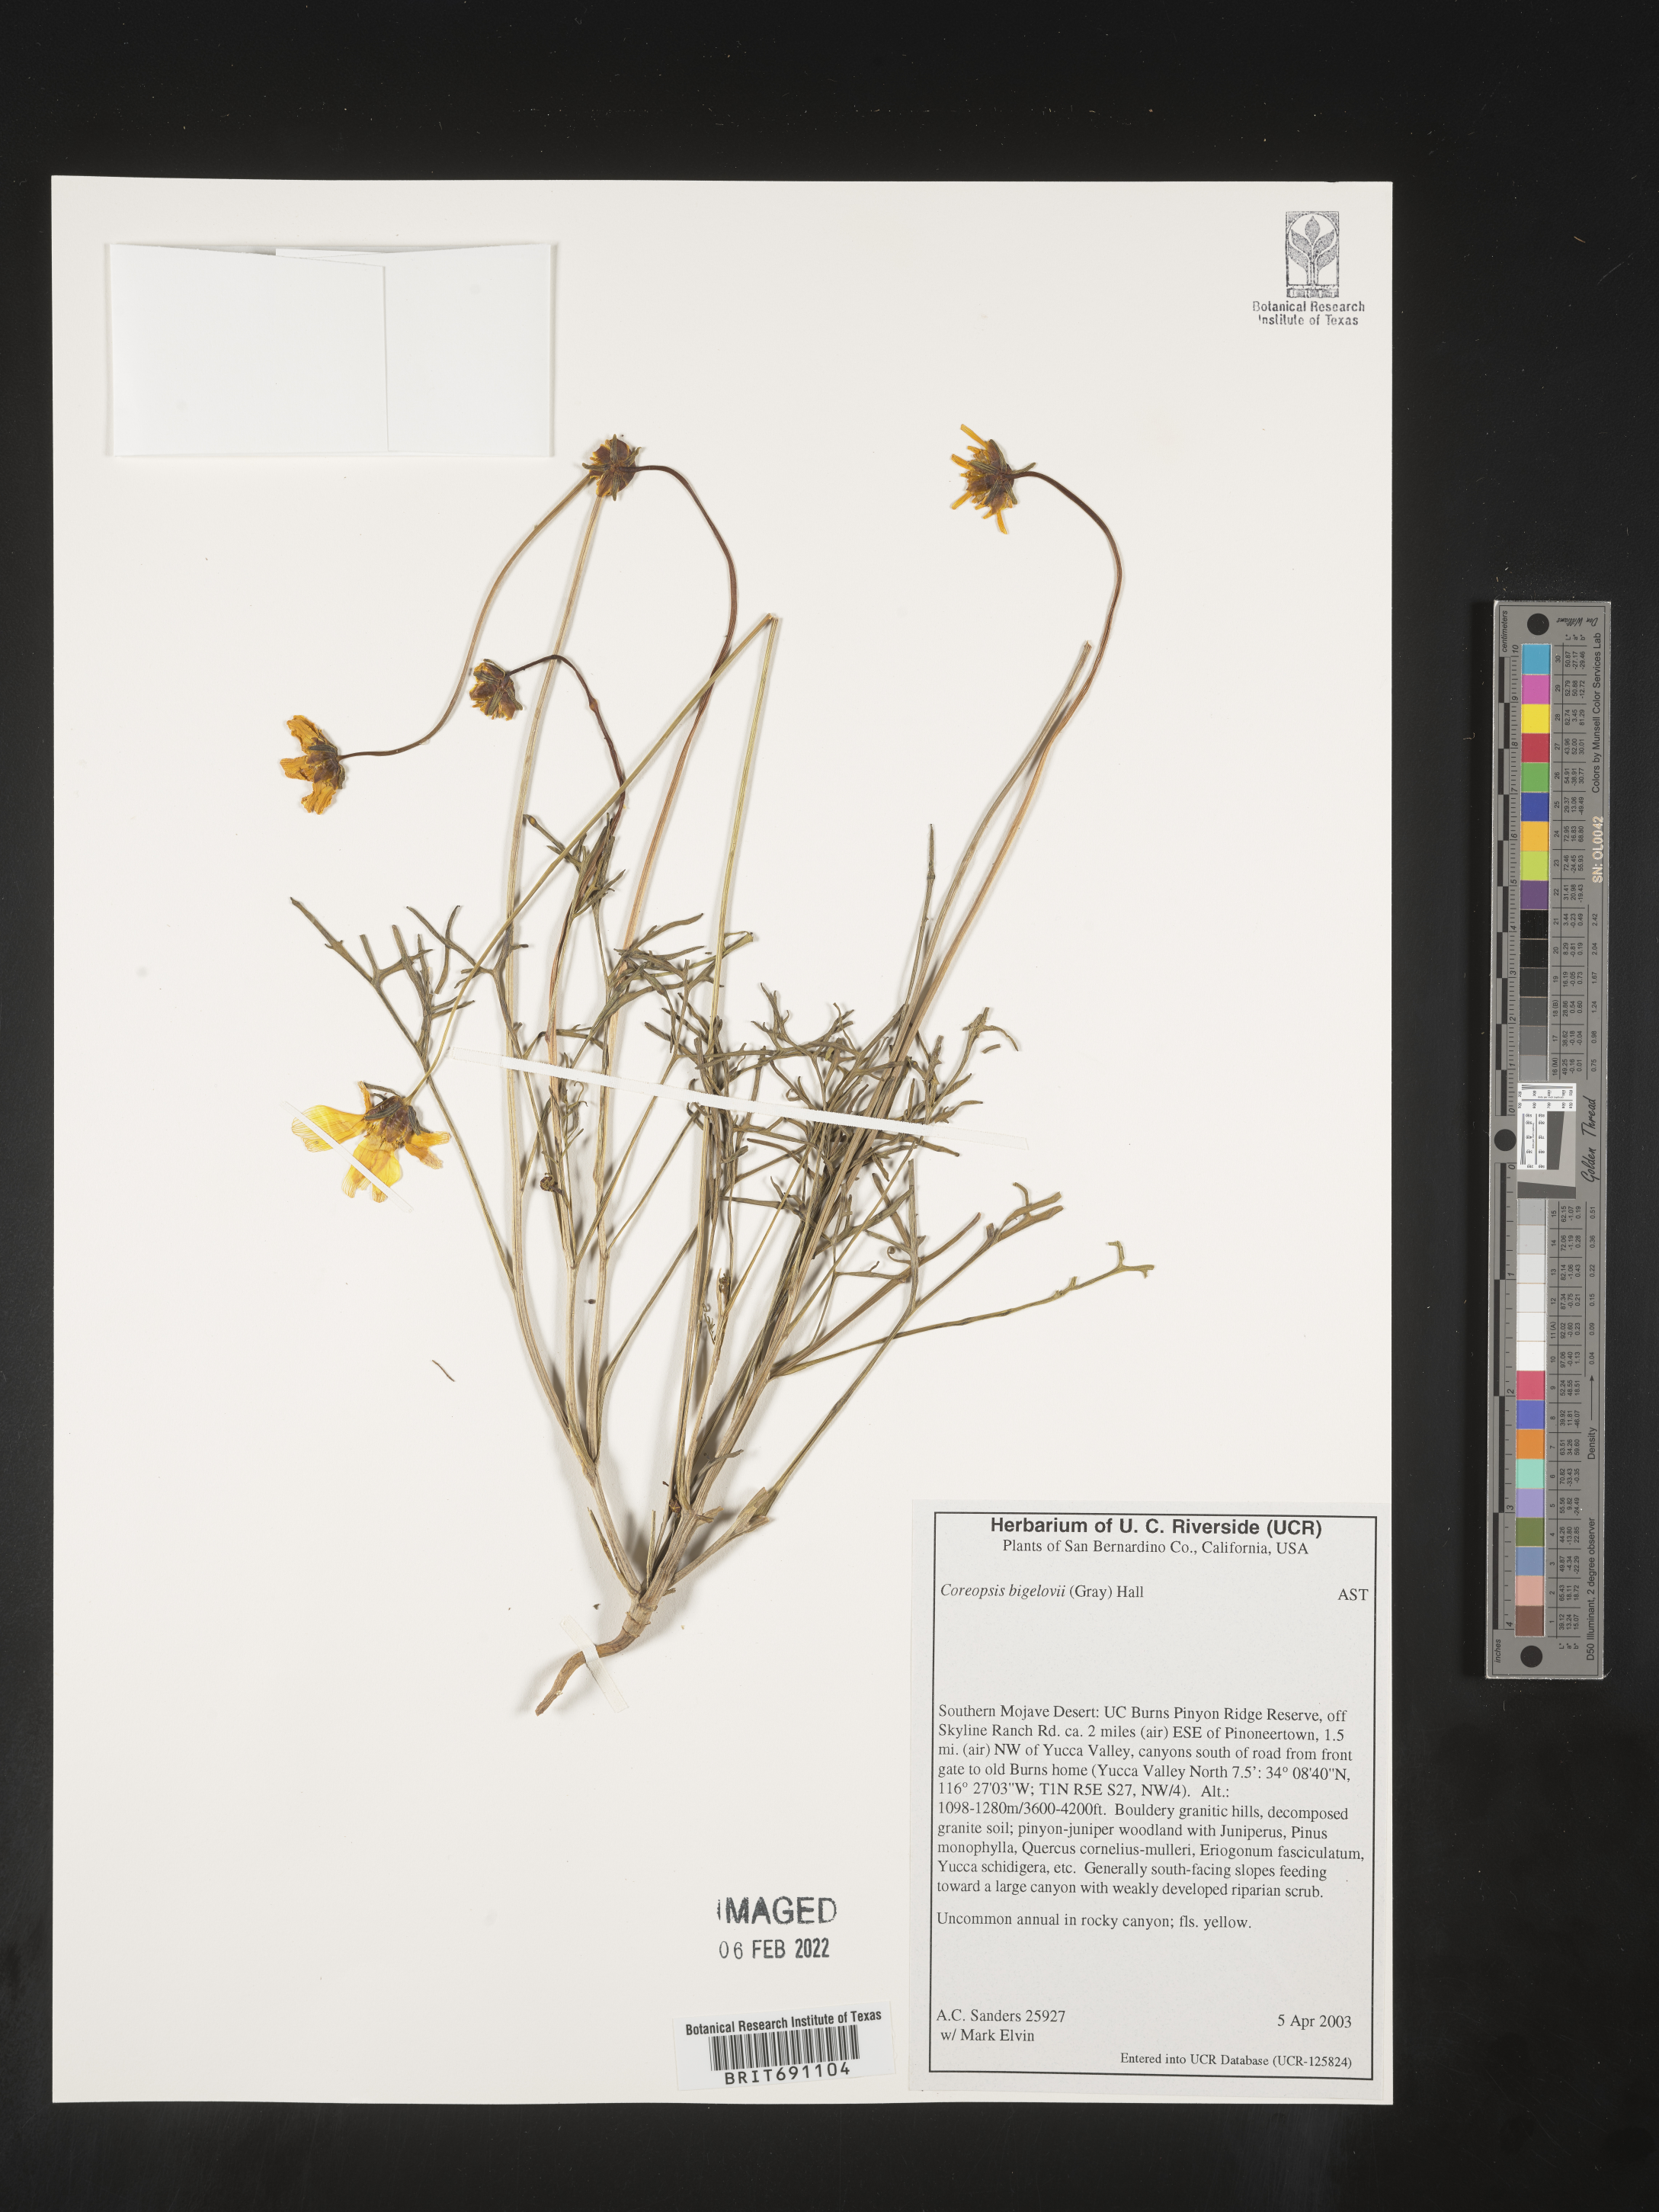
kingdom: Plantae
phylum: Tracheophyta
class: Magnoliopsida
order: Asterales
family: Asteraceae
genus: Coreopsis
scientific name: Coreopsis
